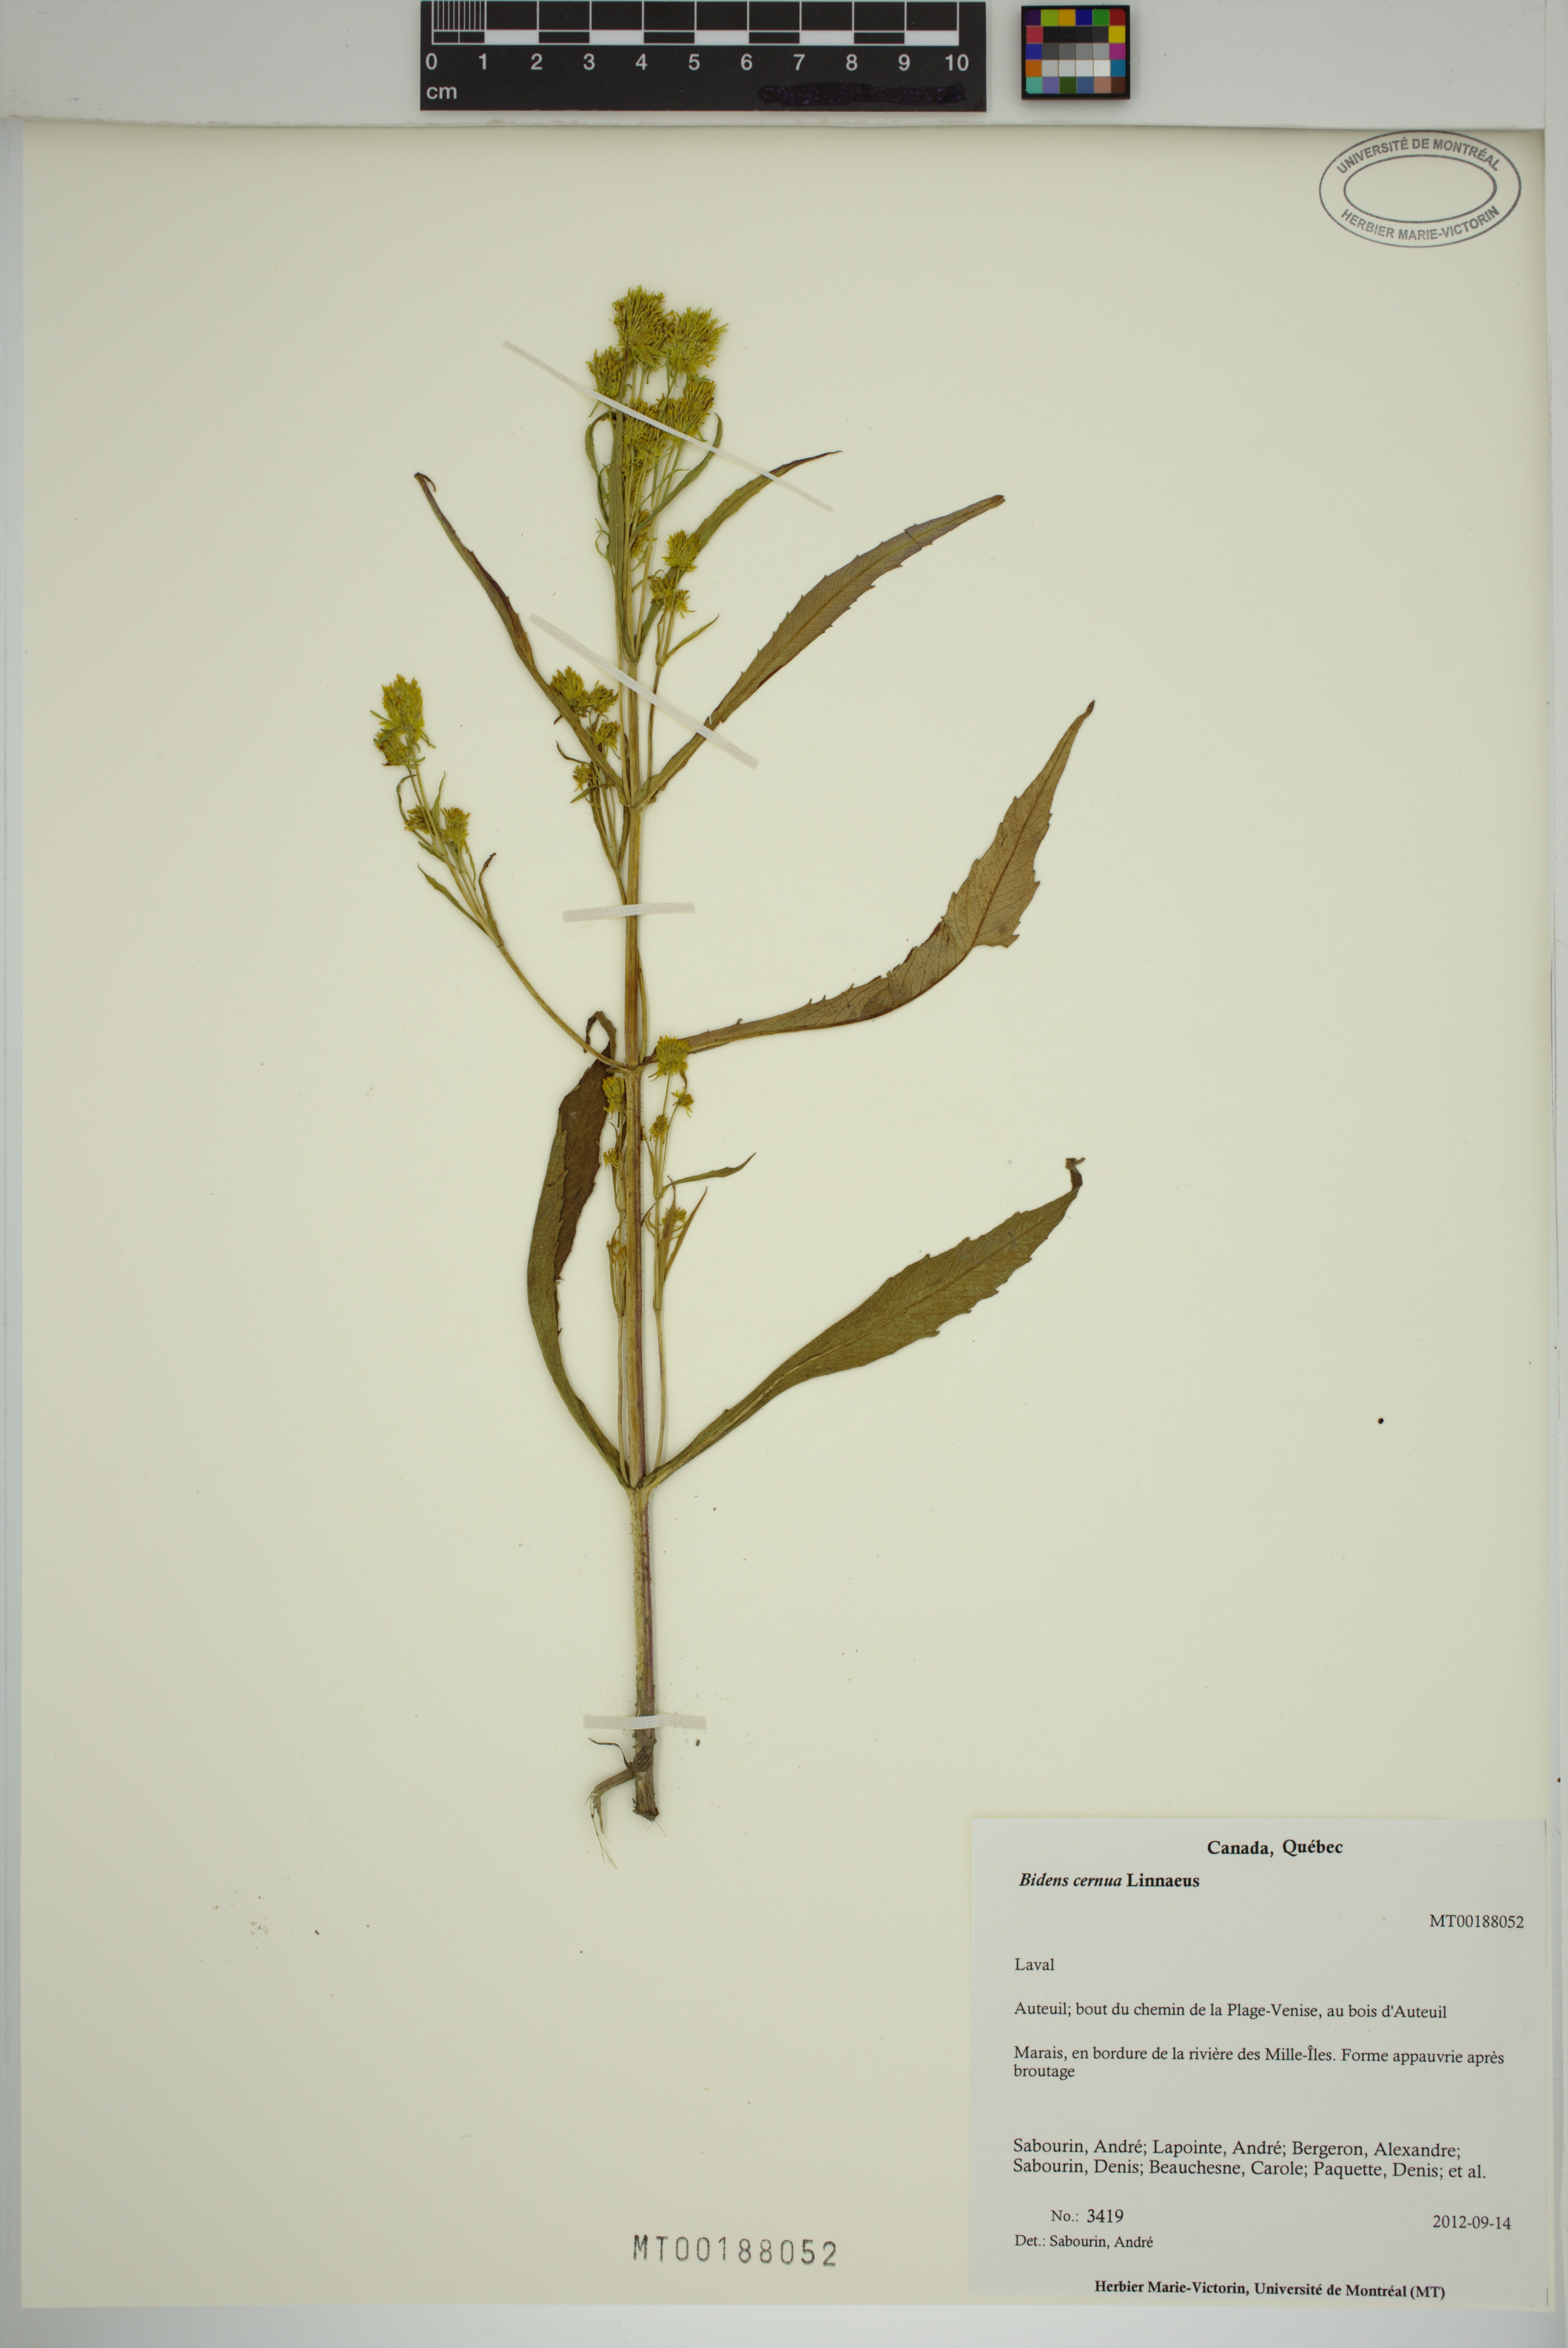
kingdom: Plantae
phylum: Tracheophyta
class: Magnoliopsida
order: Asterales
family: Asteraceae
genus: Bidens
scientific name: Bidens cernua
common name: Nodding bur-marigold
